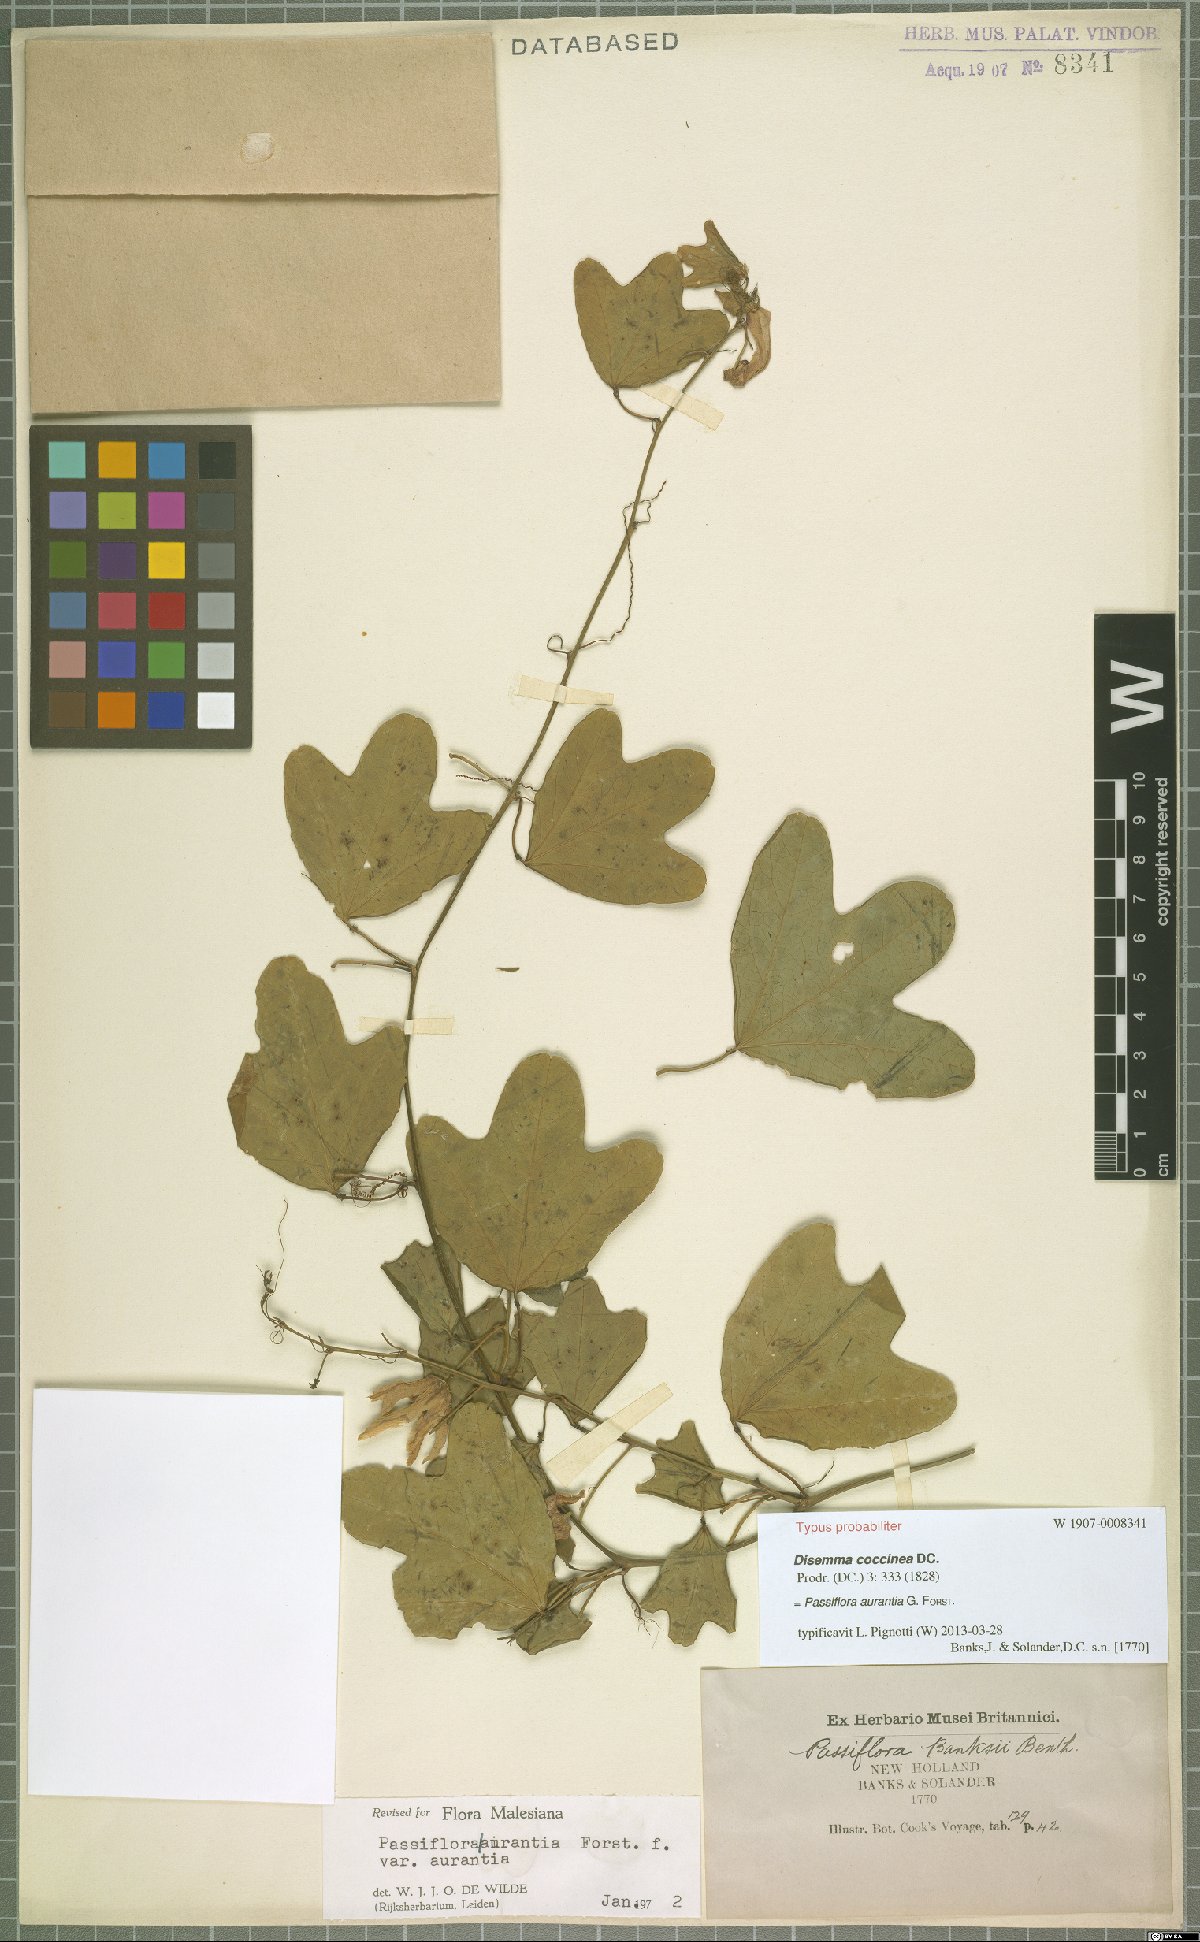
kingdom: Plantae
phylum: Tracheophyta
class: Magnoliopsida
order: Malpighiales
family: Passifloraceae
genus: Passiflora
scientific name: Passiflora aurantia
